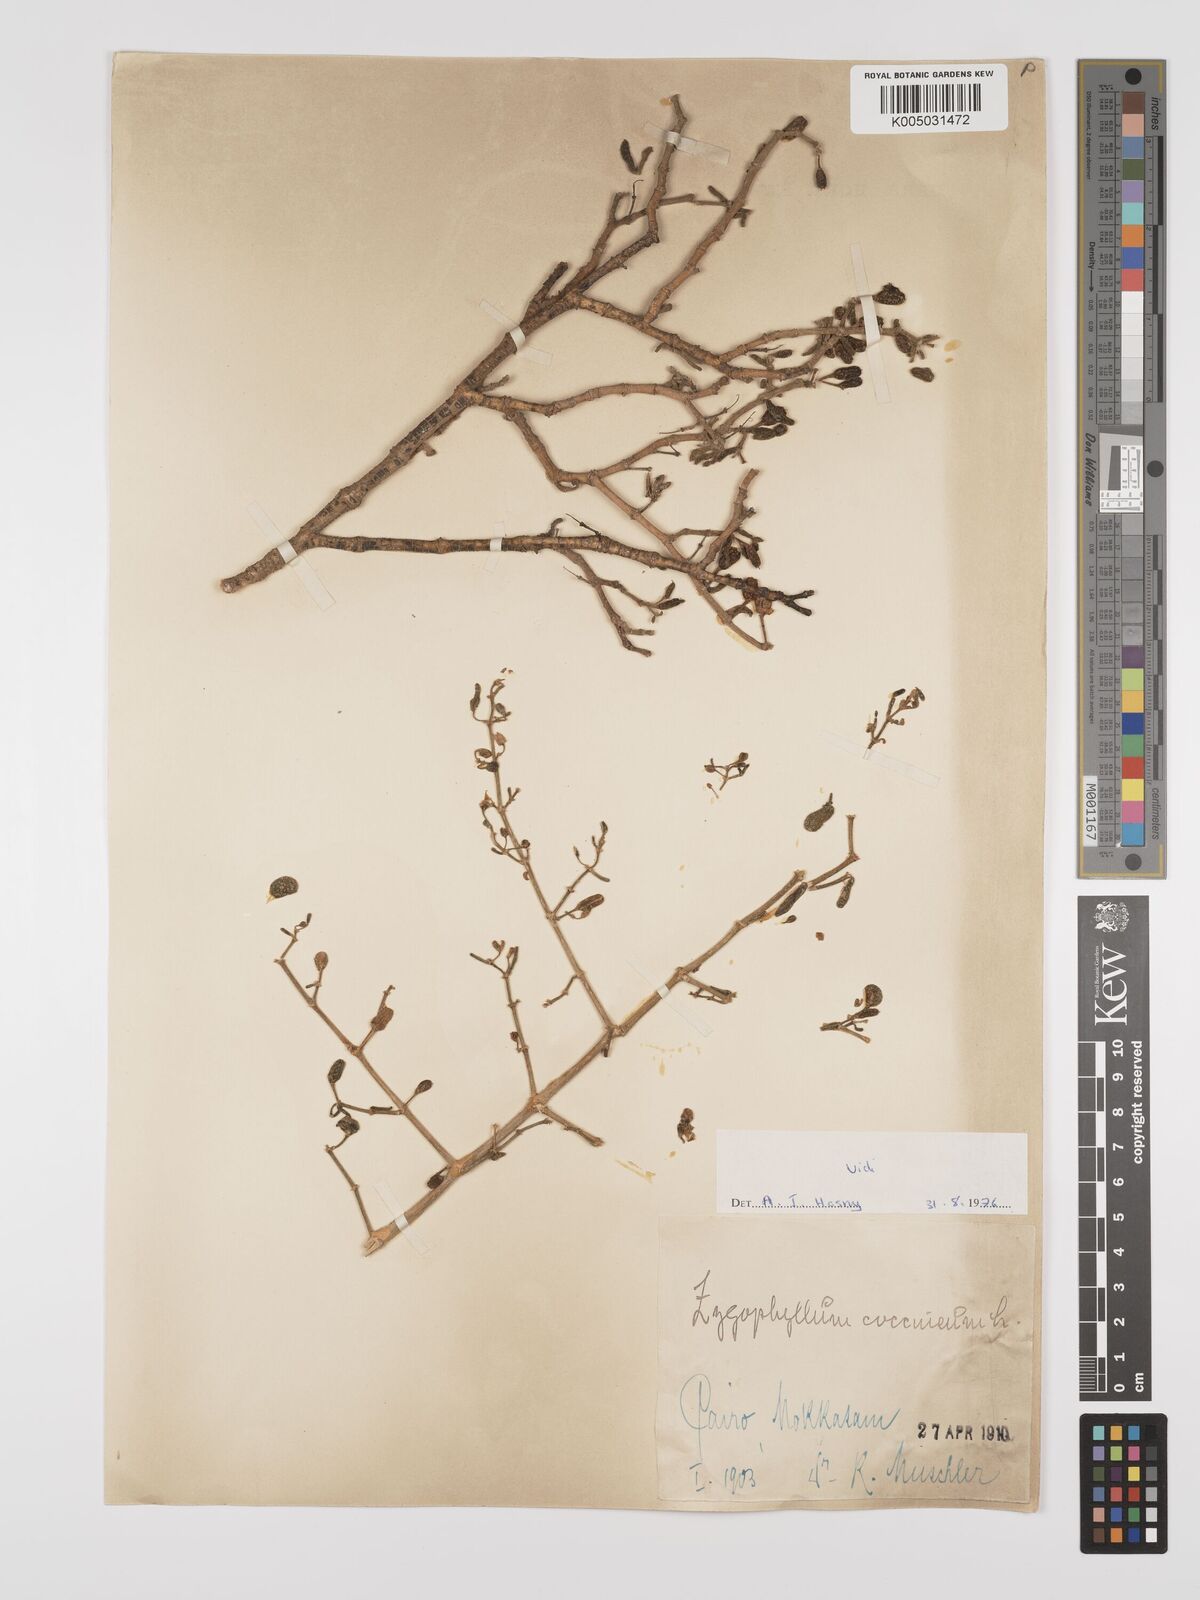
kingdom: Plantae
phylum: Tracheophyta
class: Magnoliopsida
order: Zygophyllales
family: Zygophyllaceae
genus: Tetraena
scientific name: Tetraena coccinea
